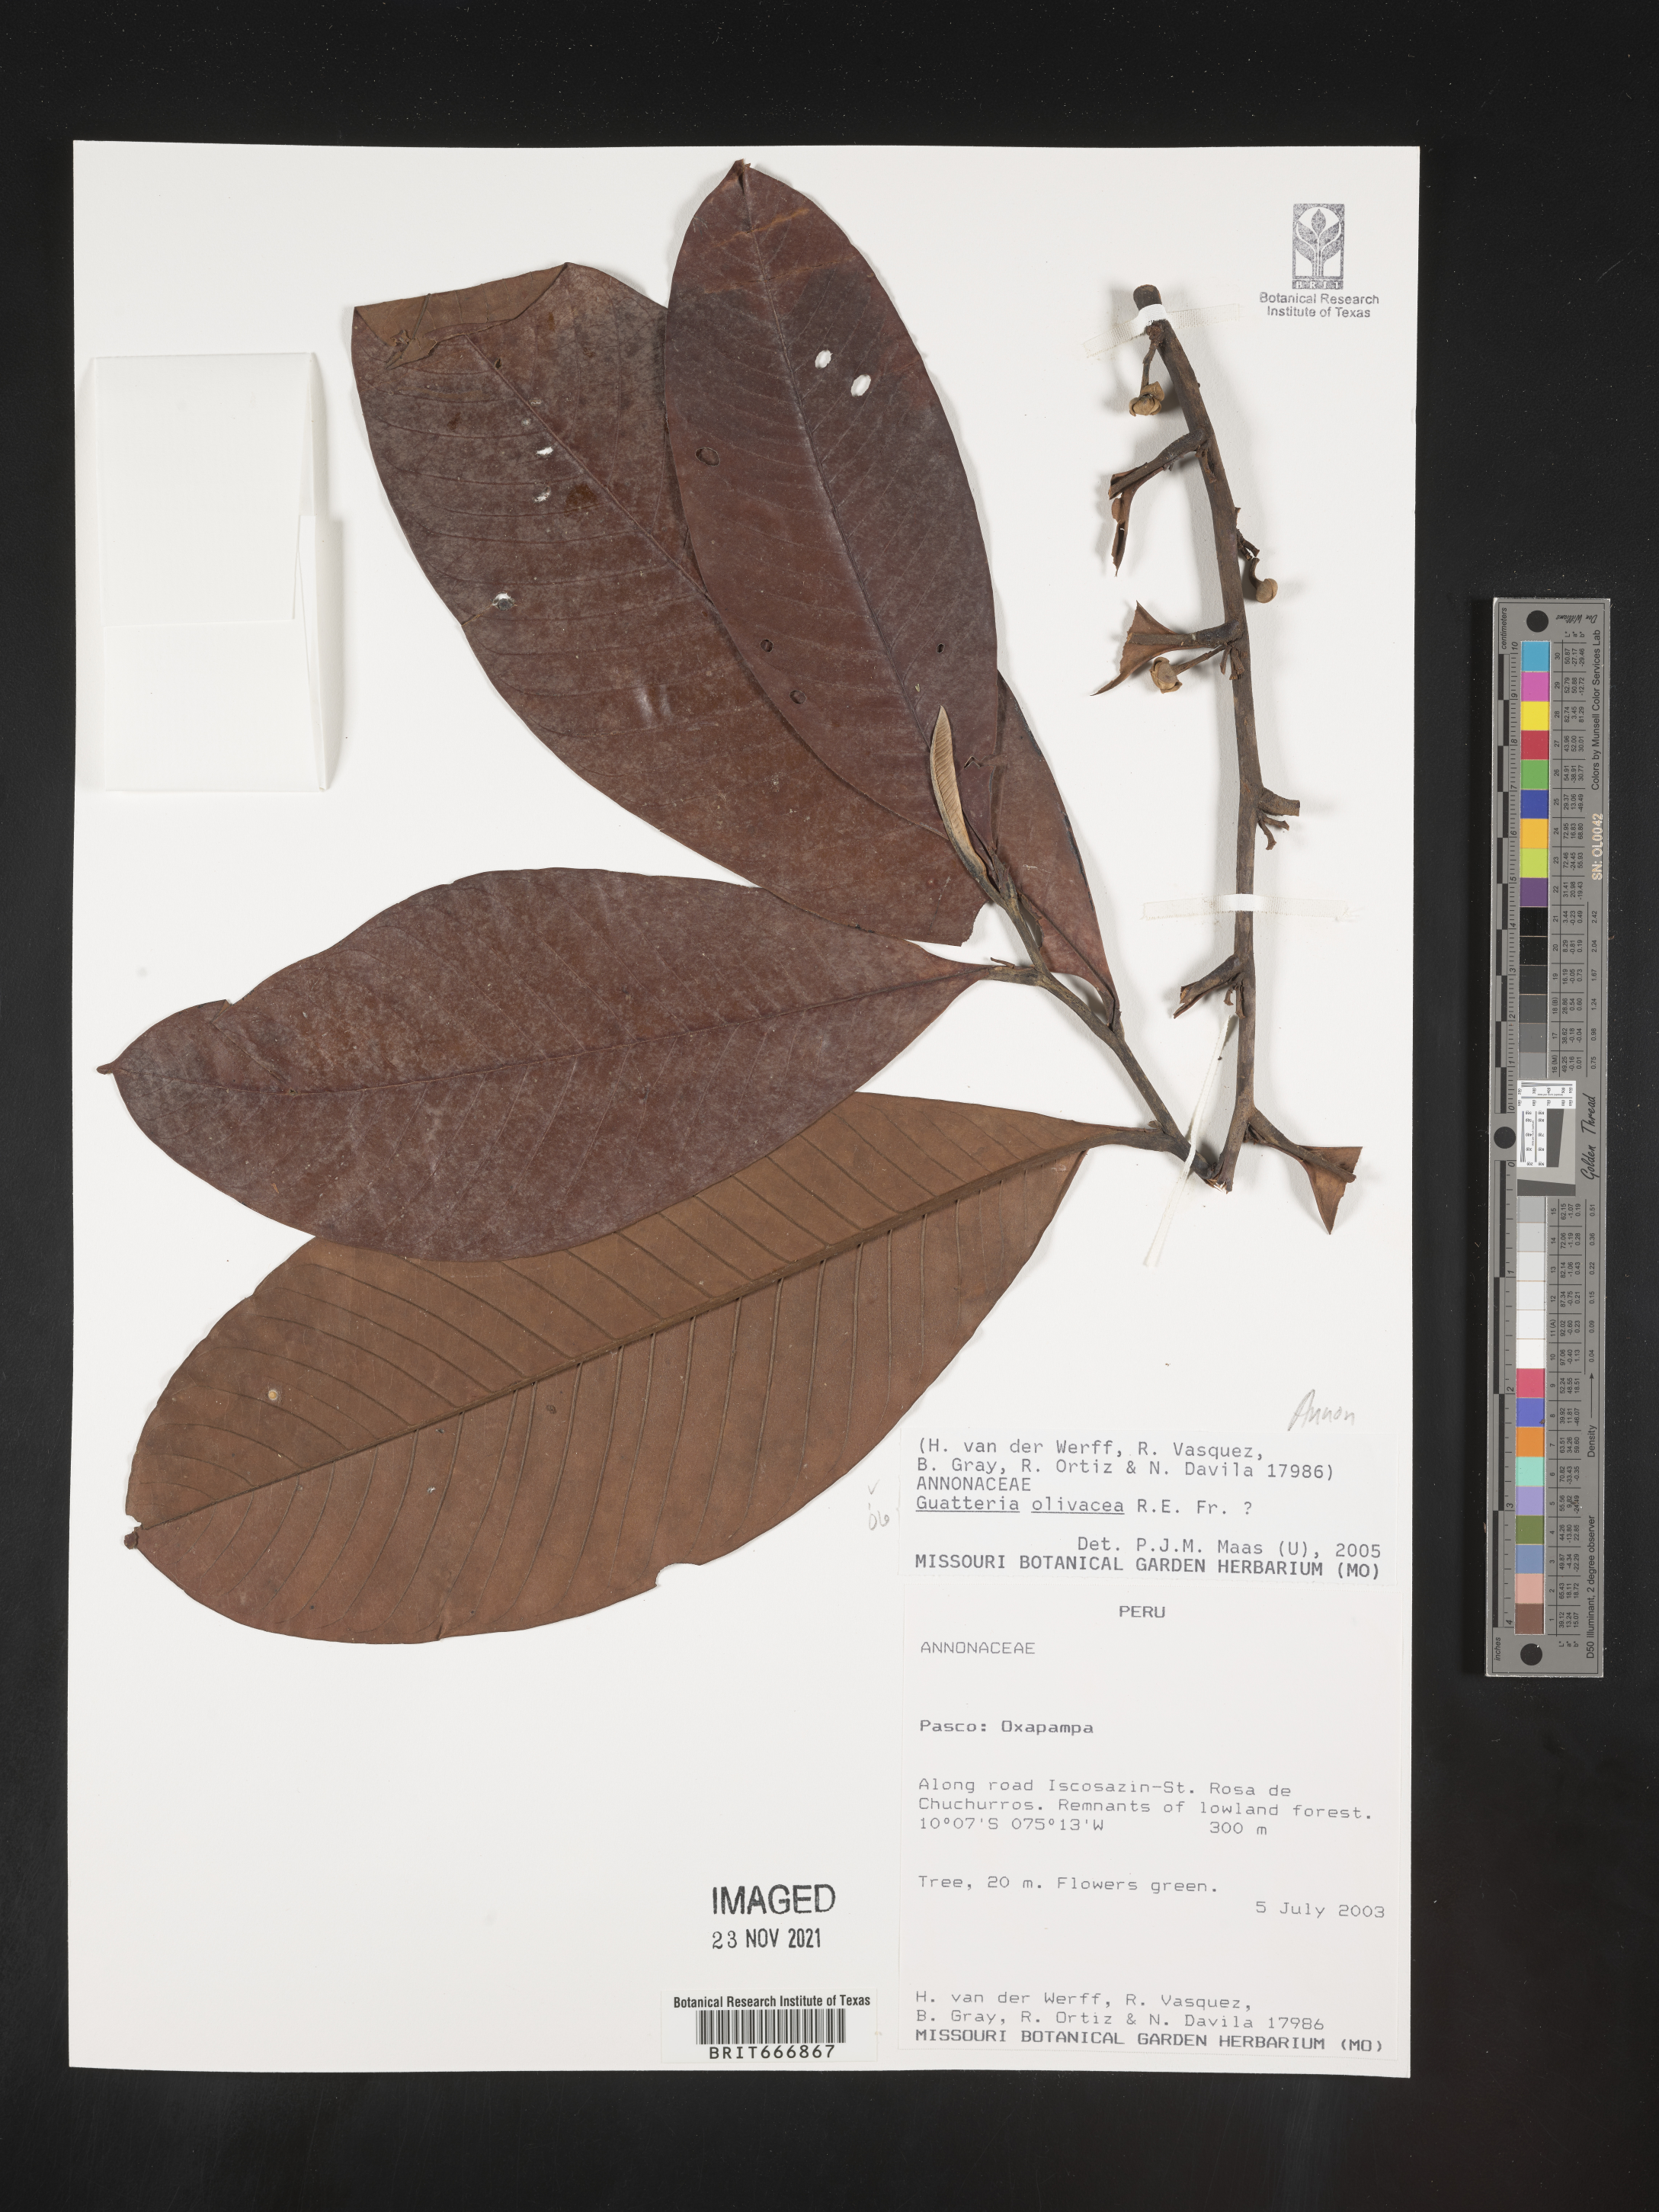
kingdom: Plantae
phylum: Tracheophyta
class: Magnoliopsida
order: Magnoliales
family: Annonaceae
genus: Guatteria
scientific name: Guatteria
